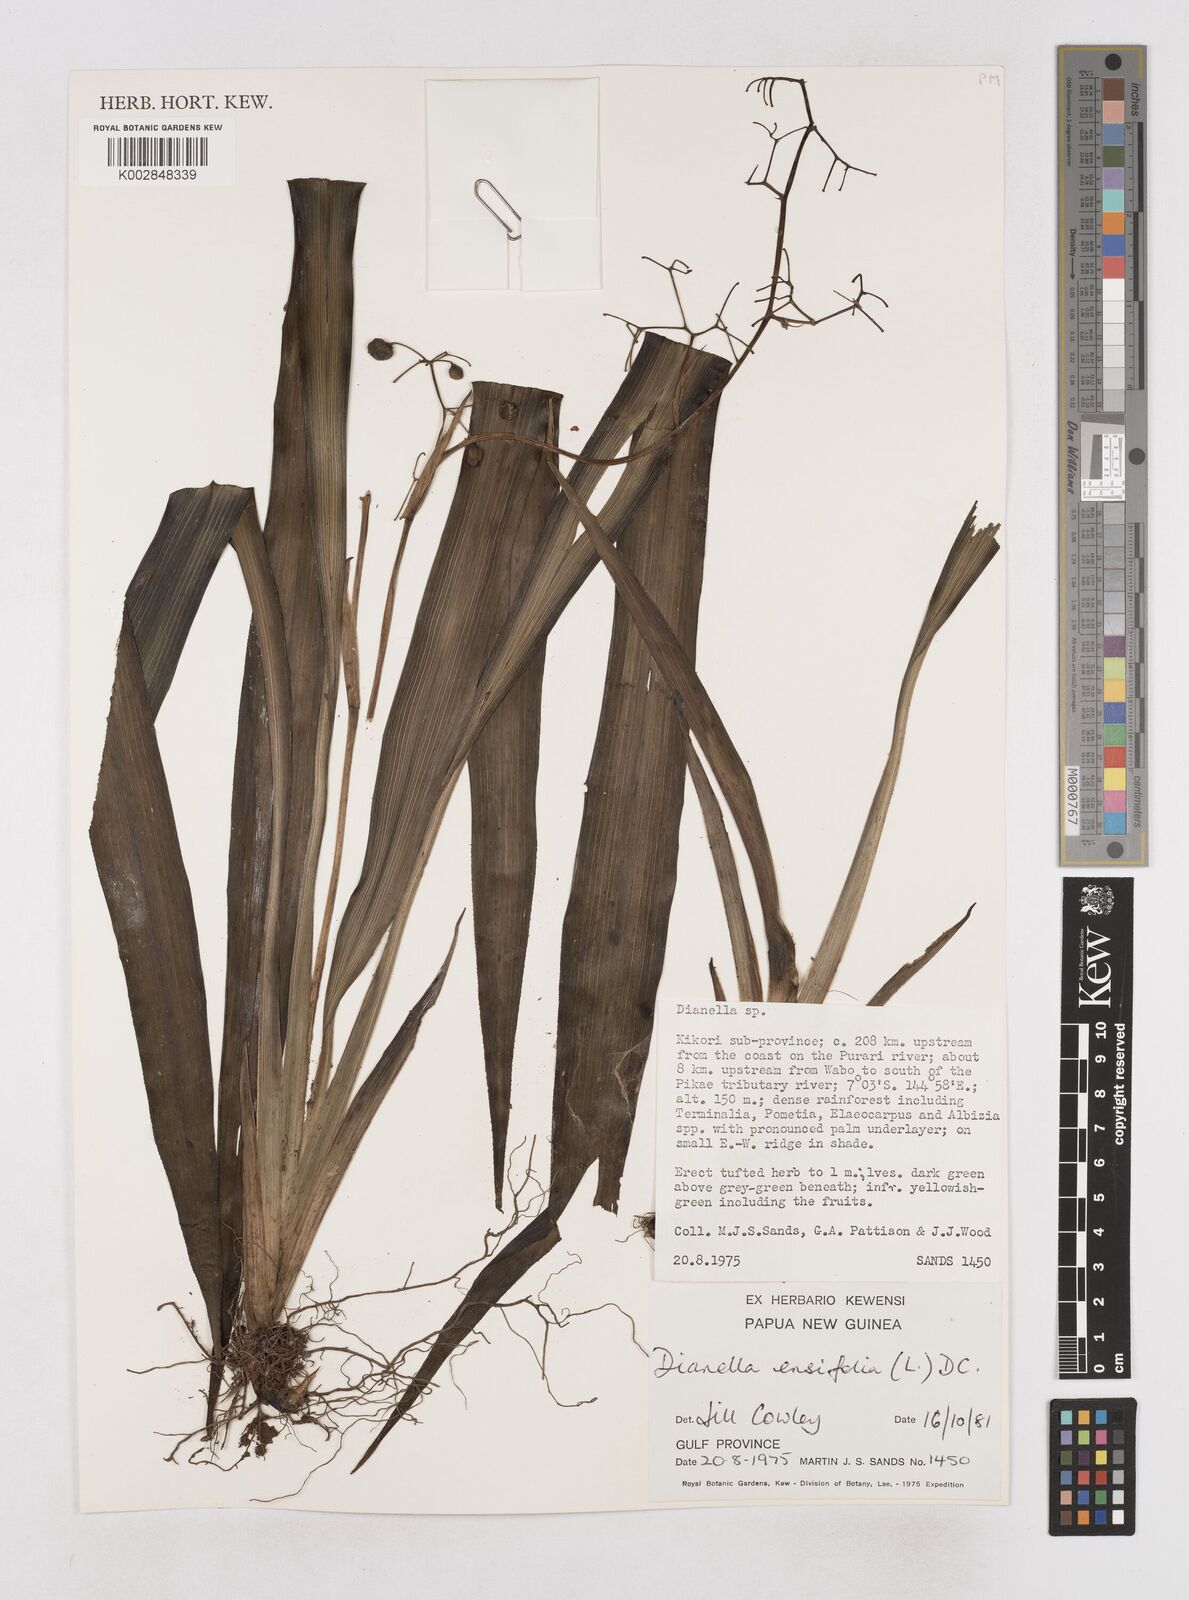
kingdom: Plantae
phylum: Tracheophyta
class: Liliopsida
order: Asparagales
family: Asphodelaceae
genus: Dianella
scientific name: Dianella ensifolia
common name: New zealand lilyplant
